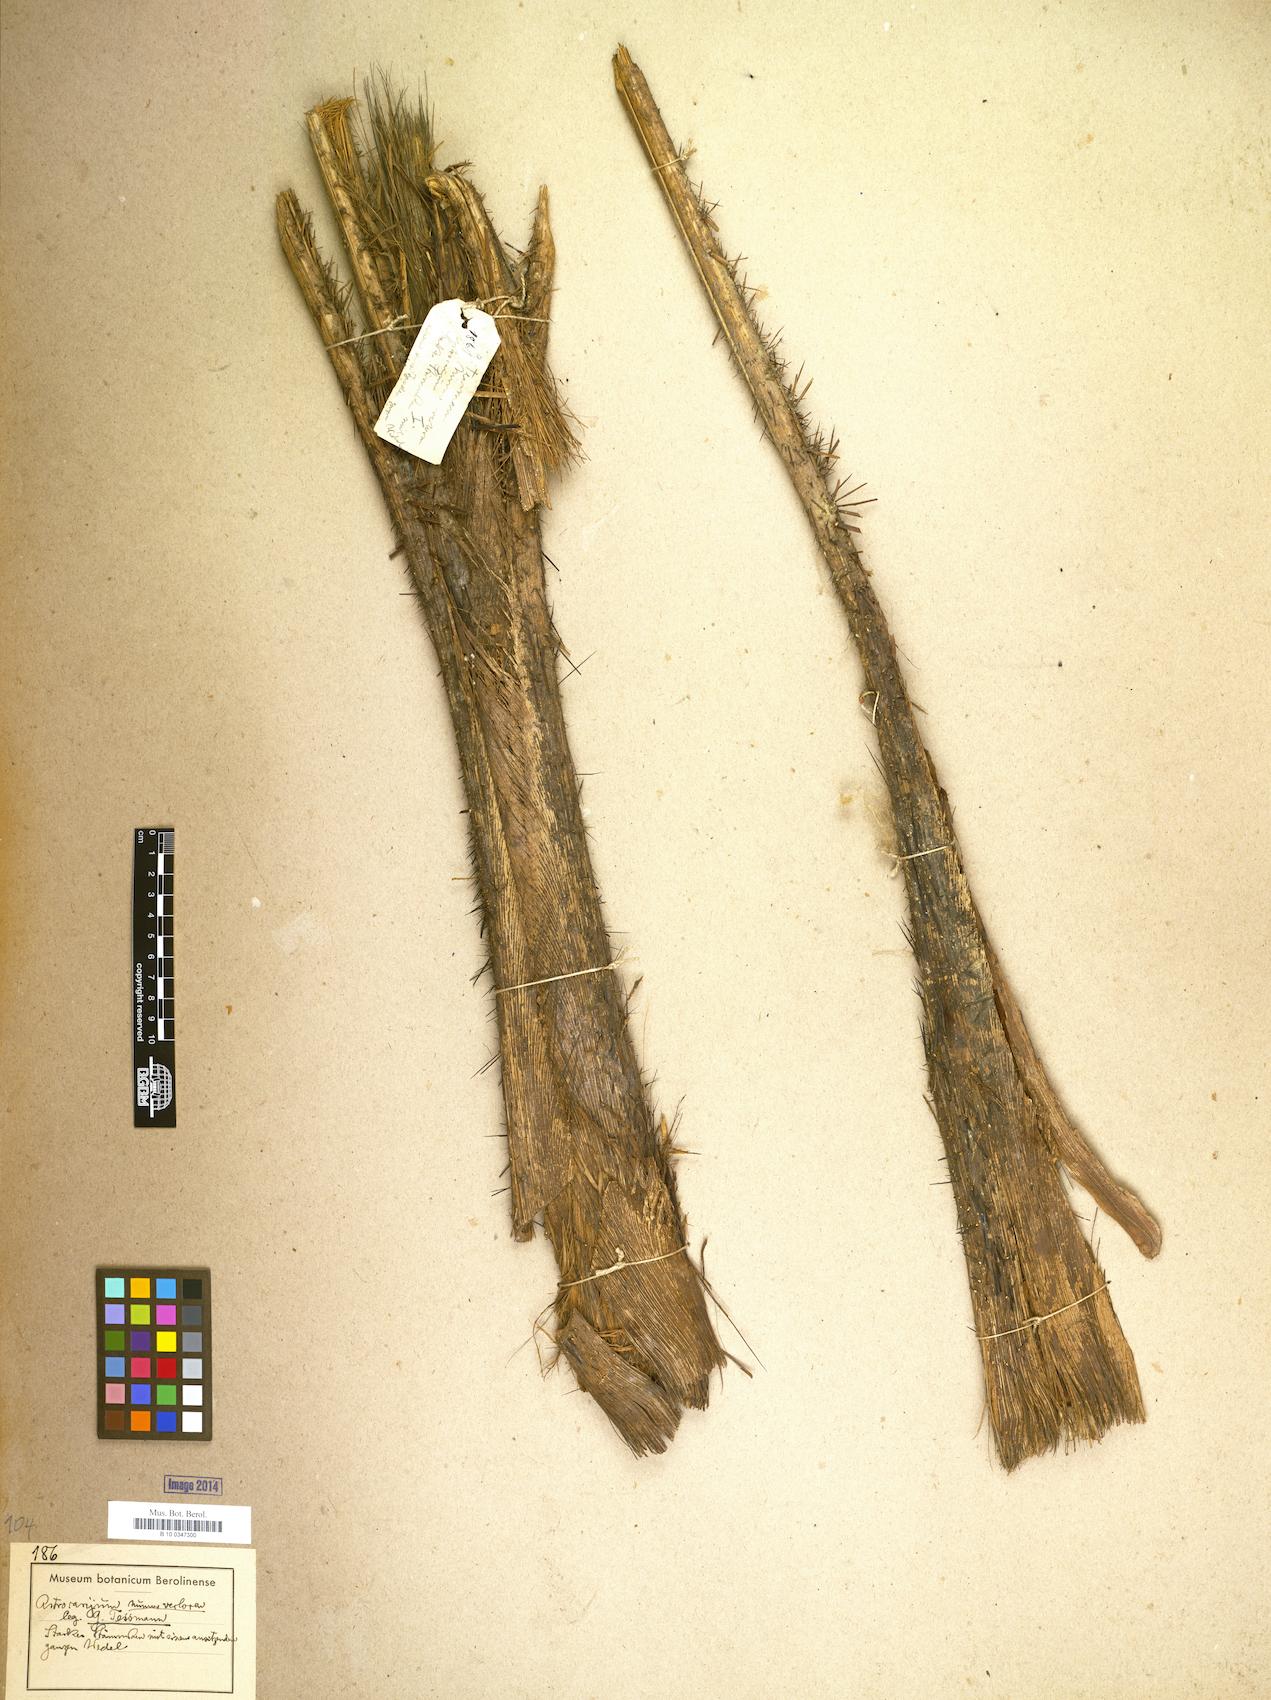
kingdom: Plantae
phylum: Tracheophyta
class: Liliopsida
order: Arecales
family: Arecaceae
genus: Astrocaryum
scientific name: Astrocaryum
